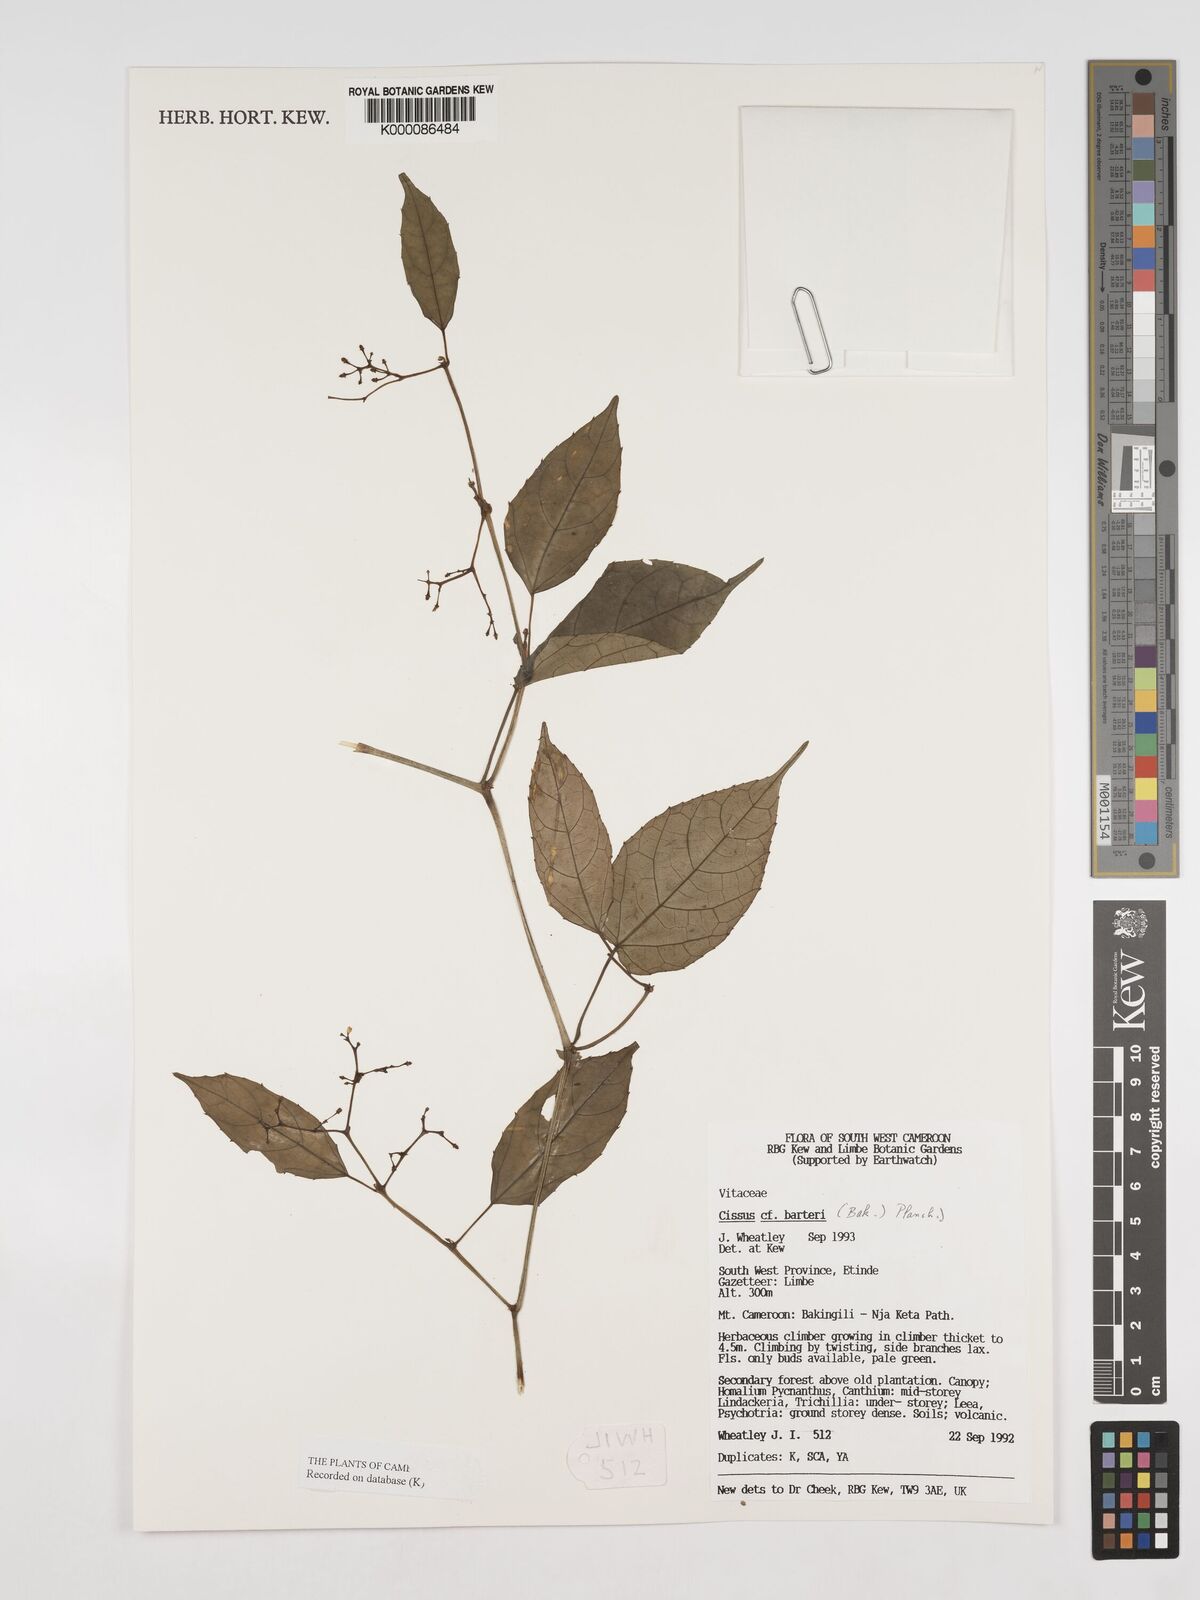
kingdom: Plantae
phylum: Tracheophyta
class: Magnoliopsida
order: Vitales
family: Vitaceae
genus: Cissus
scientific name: Cissus barteri
